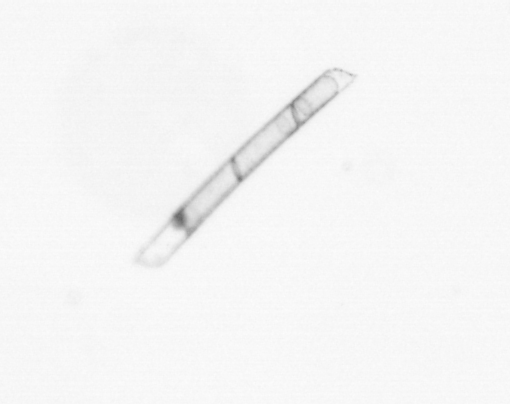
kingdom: Chromista
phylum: Ochrophyta
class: Bacillariophyceae
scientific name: Bacillariophyceae
